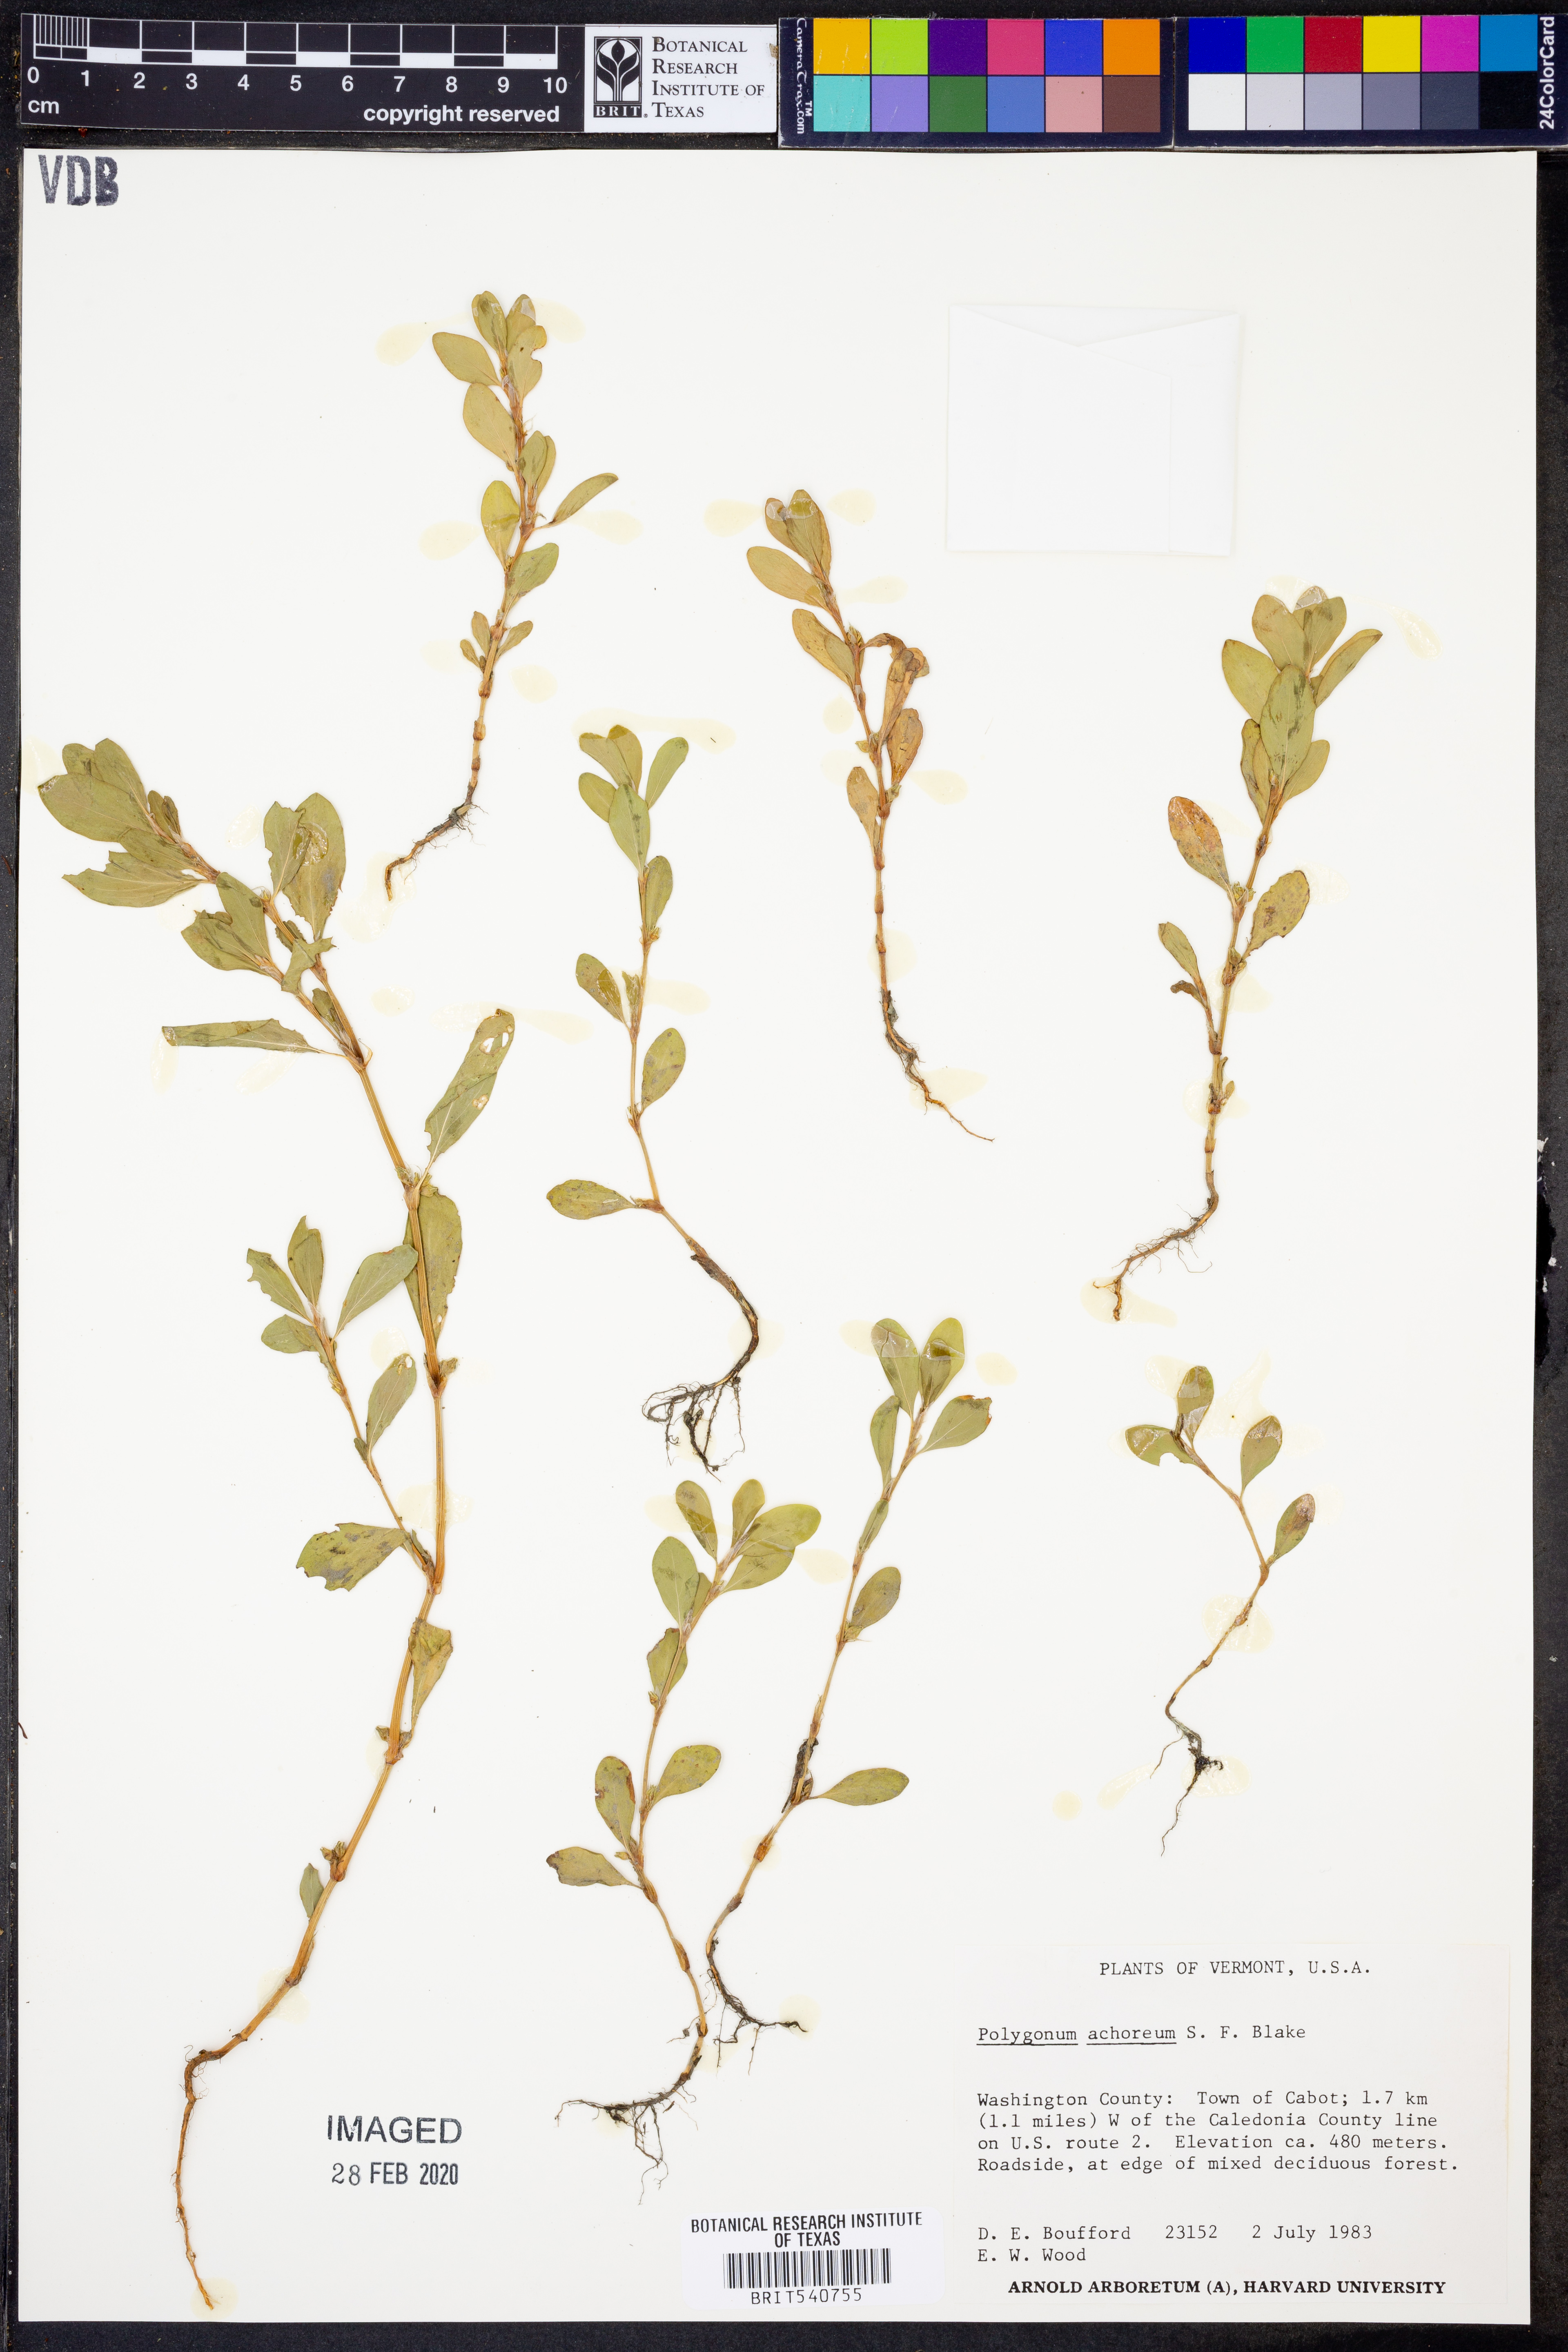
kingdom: Plantae
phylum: Tracheophyta
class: Magnoliopsida
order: Caryophyllales
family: Polygonaceae
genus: Polygonum
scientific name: Polygonum achoreum
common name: Striate knotweed
